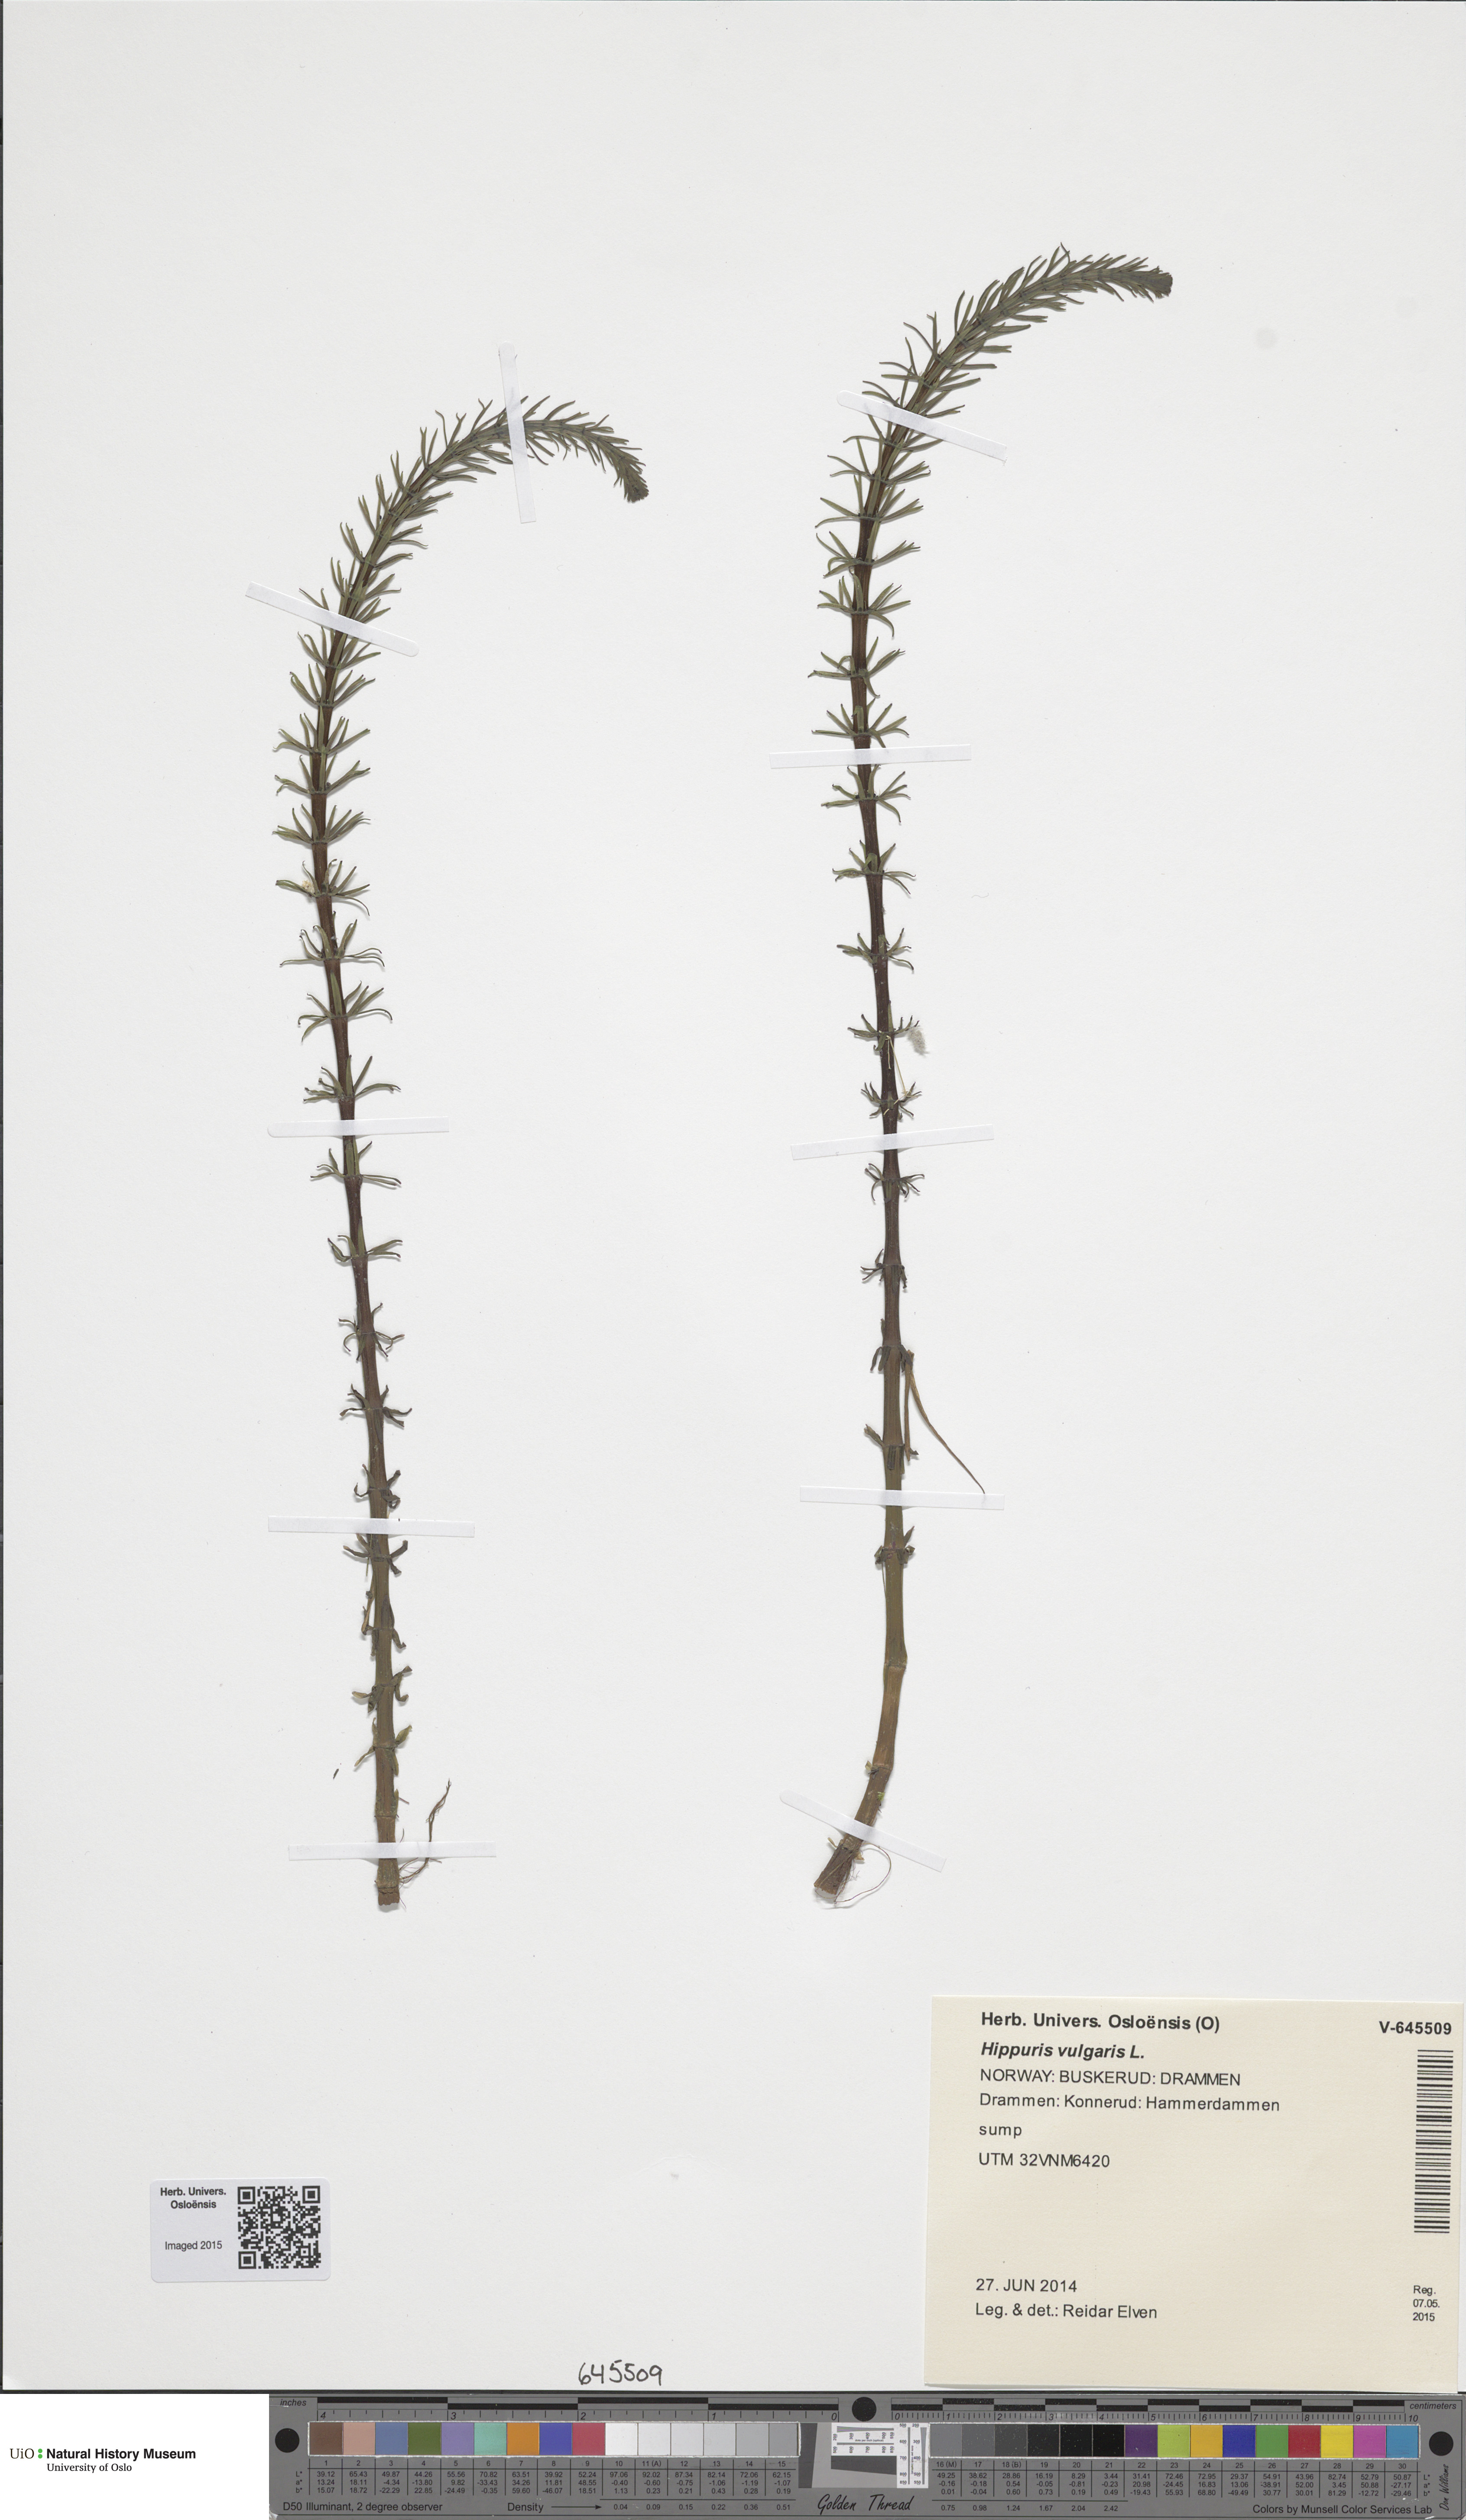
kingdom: Plantae
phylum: Tracheophyta
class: Magnoliopsida
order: Lamiales
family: Plantaginaceae
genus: Hippuris
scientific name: Hippuris vulgaris
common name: Mare's-tail
